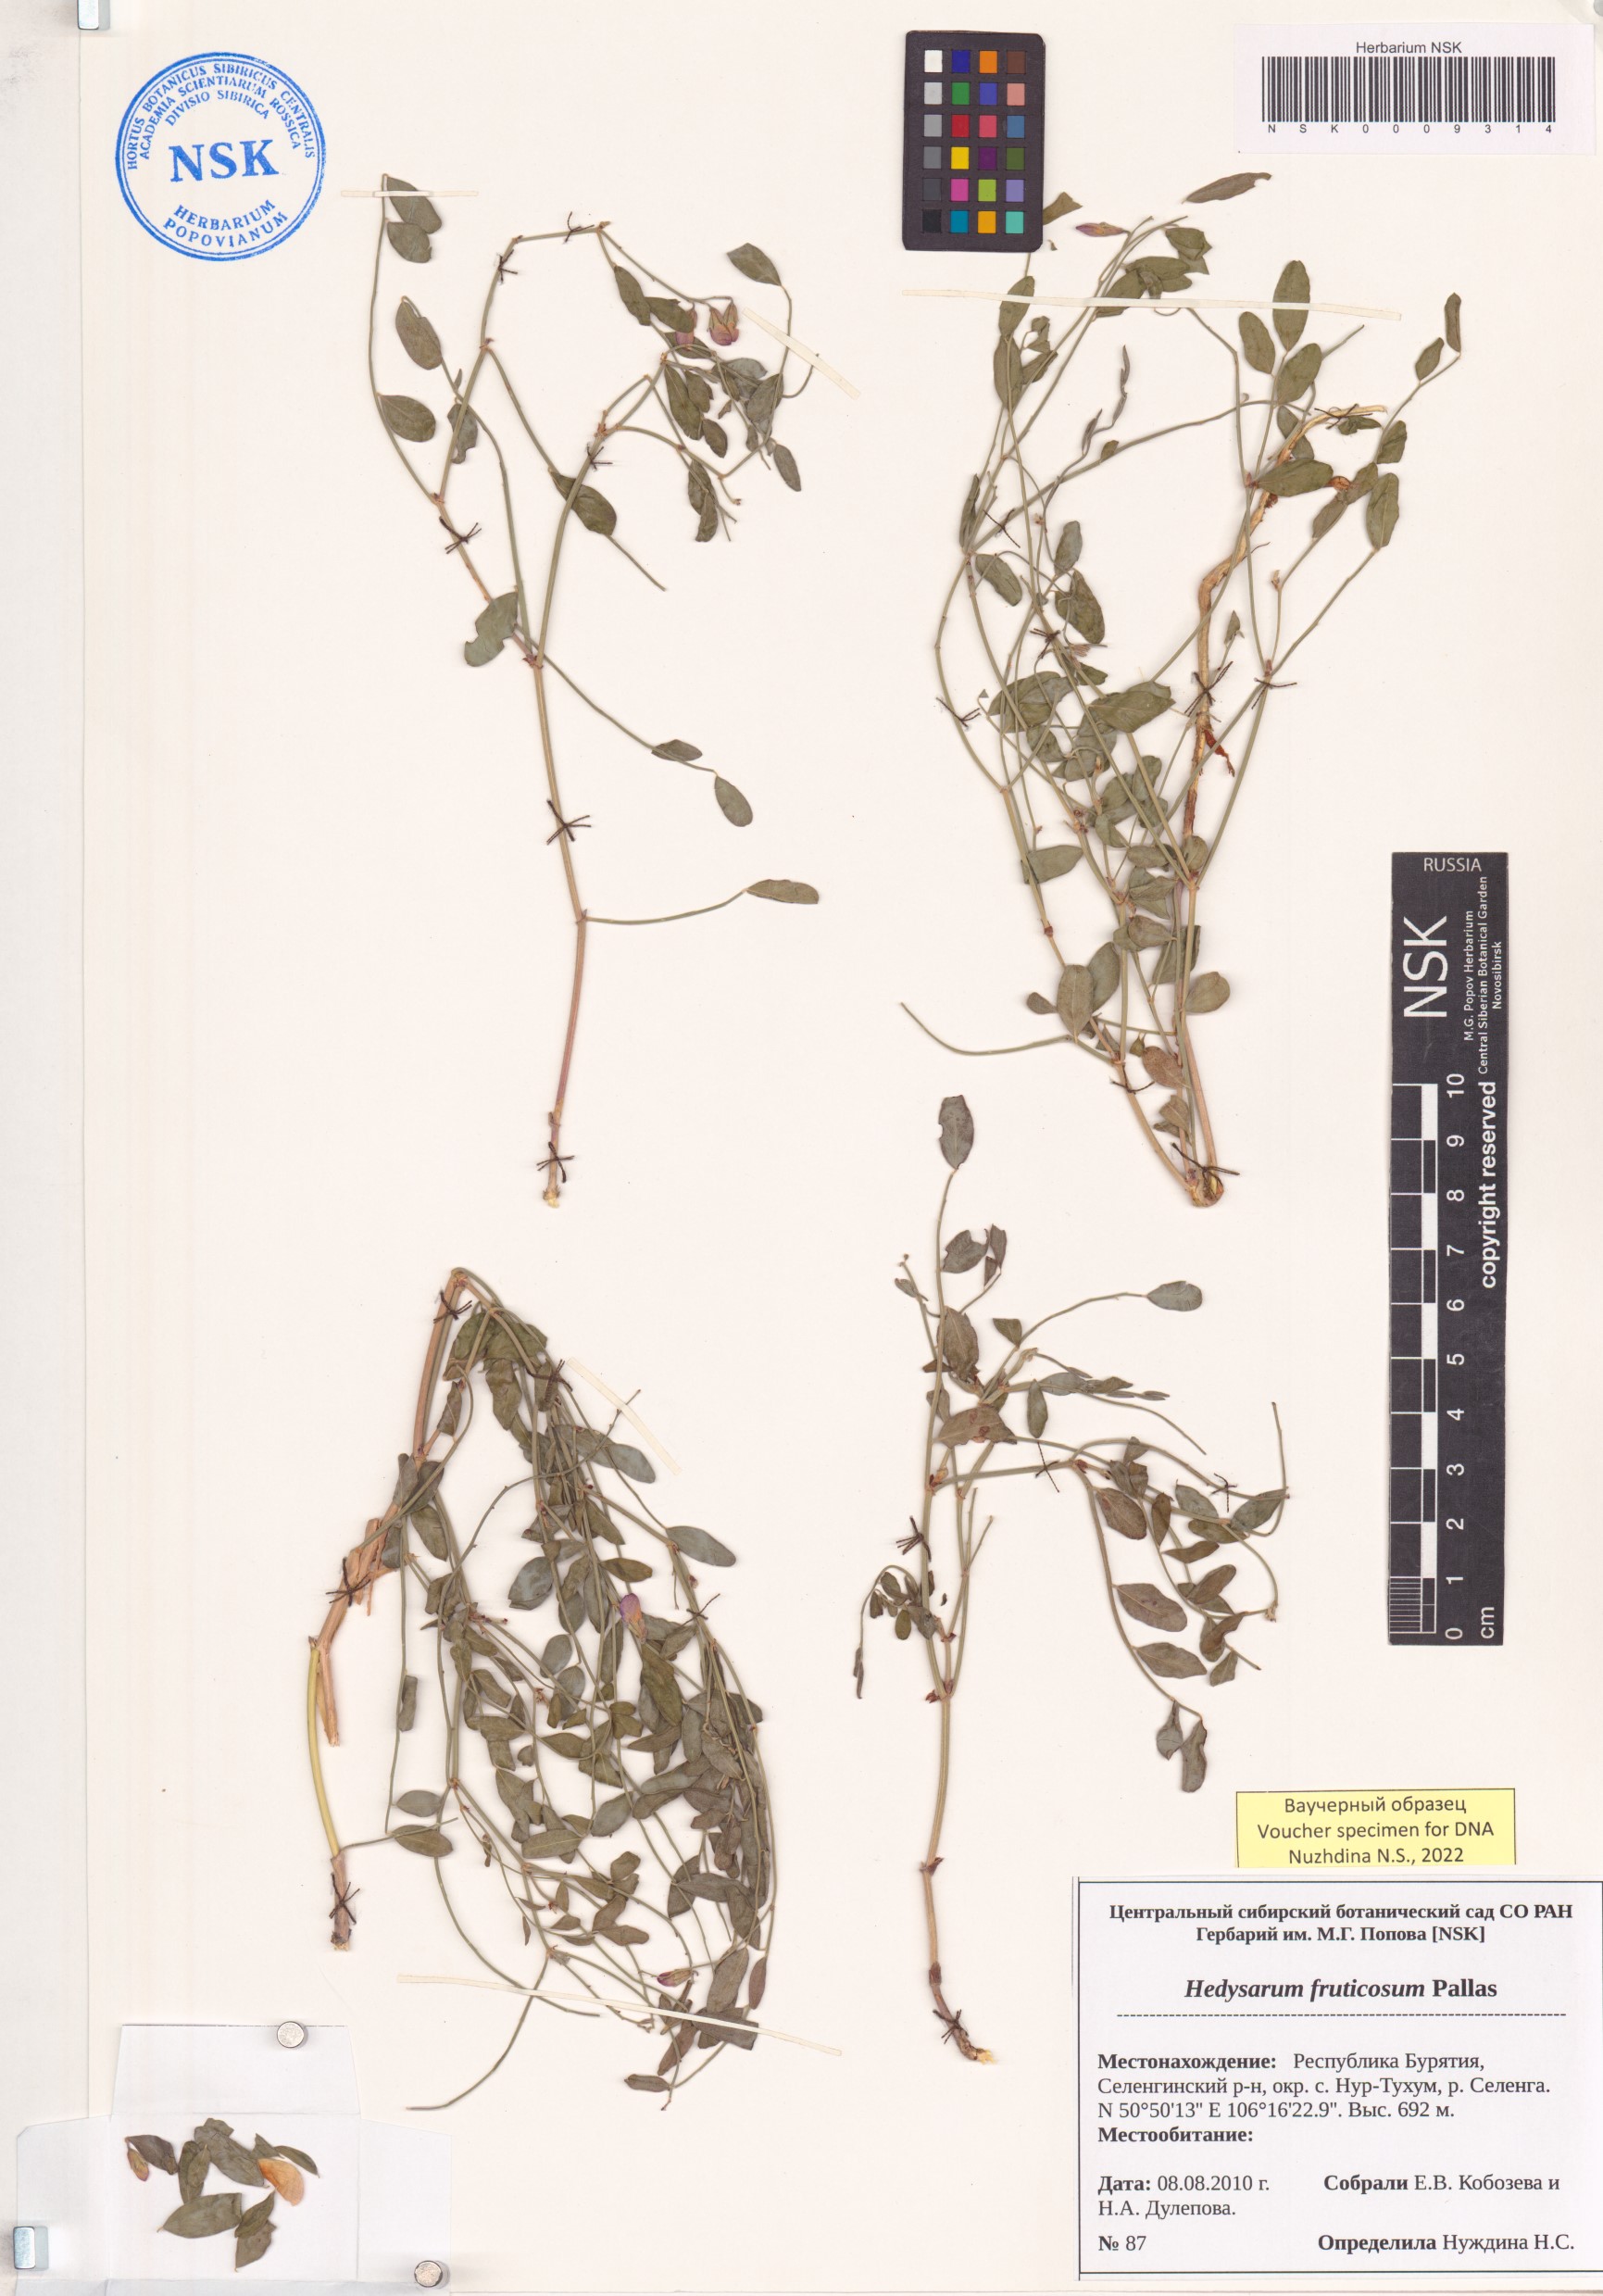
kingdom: Plantae
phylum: Tracheophyta
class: Magnoliopsida
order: Fabales
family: Fabaceae
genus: Corethrodendron
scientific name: Corethrodendron fruticosum
